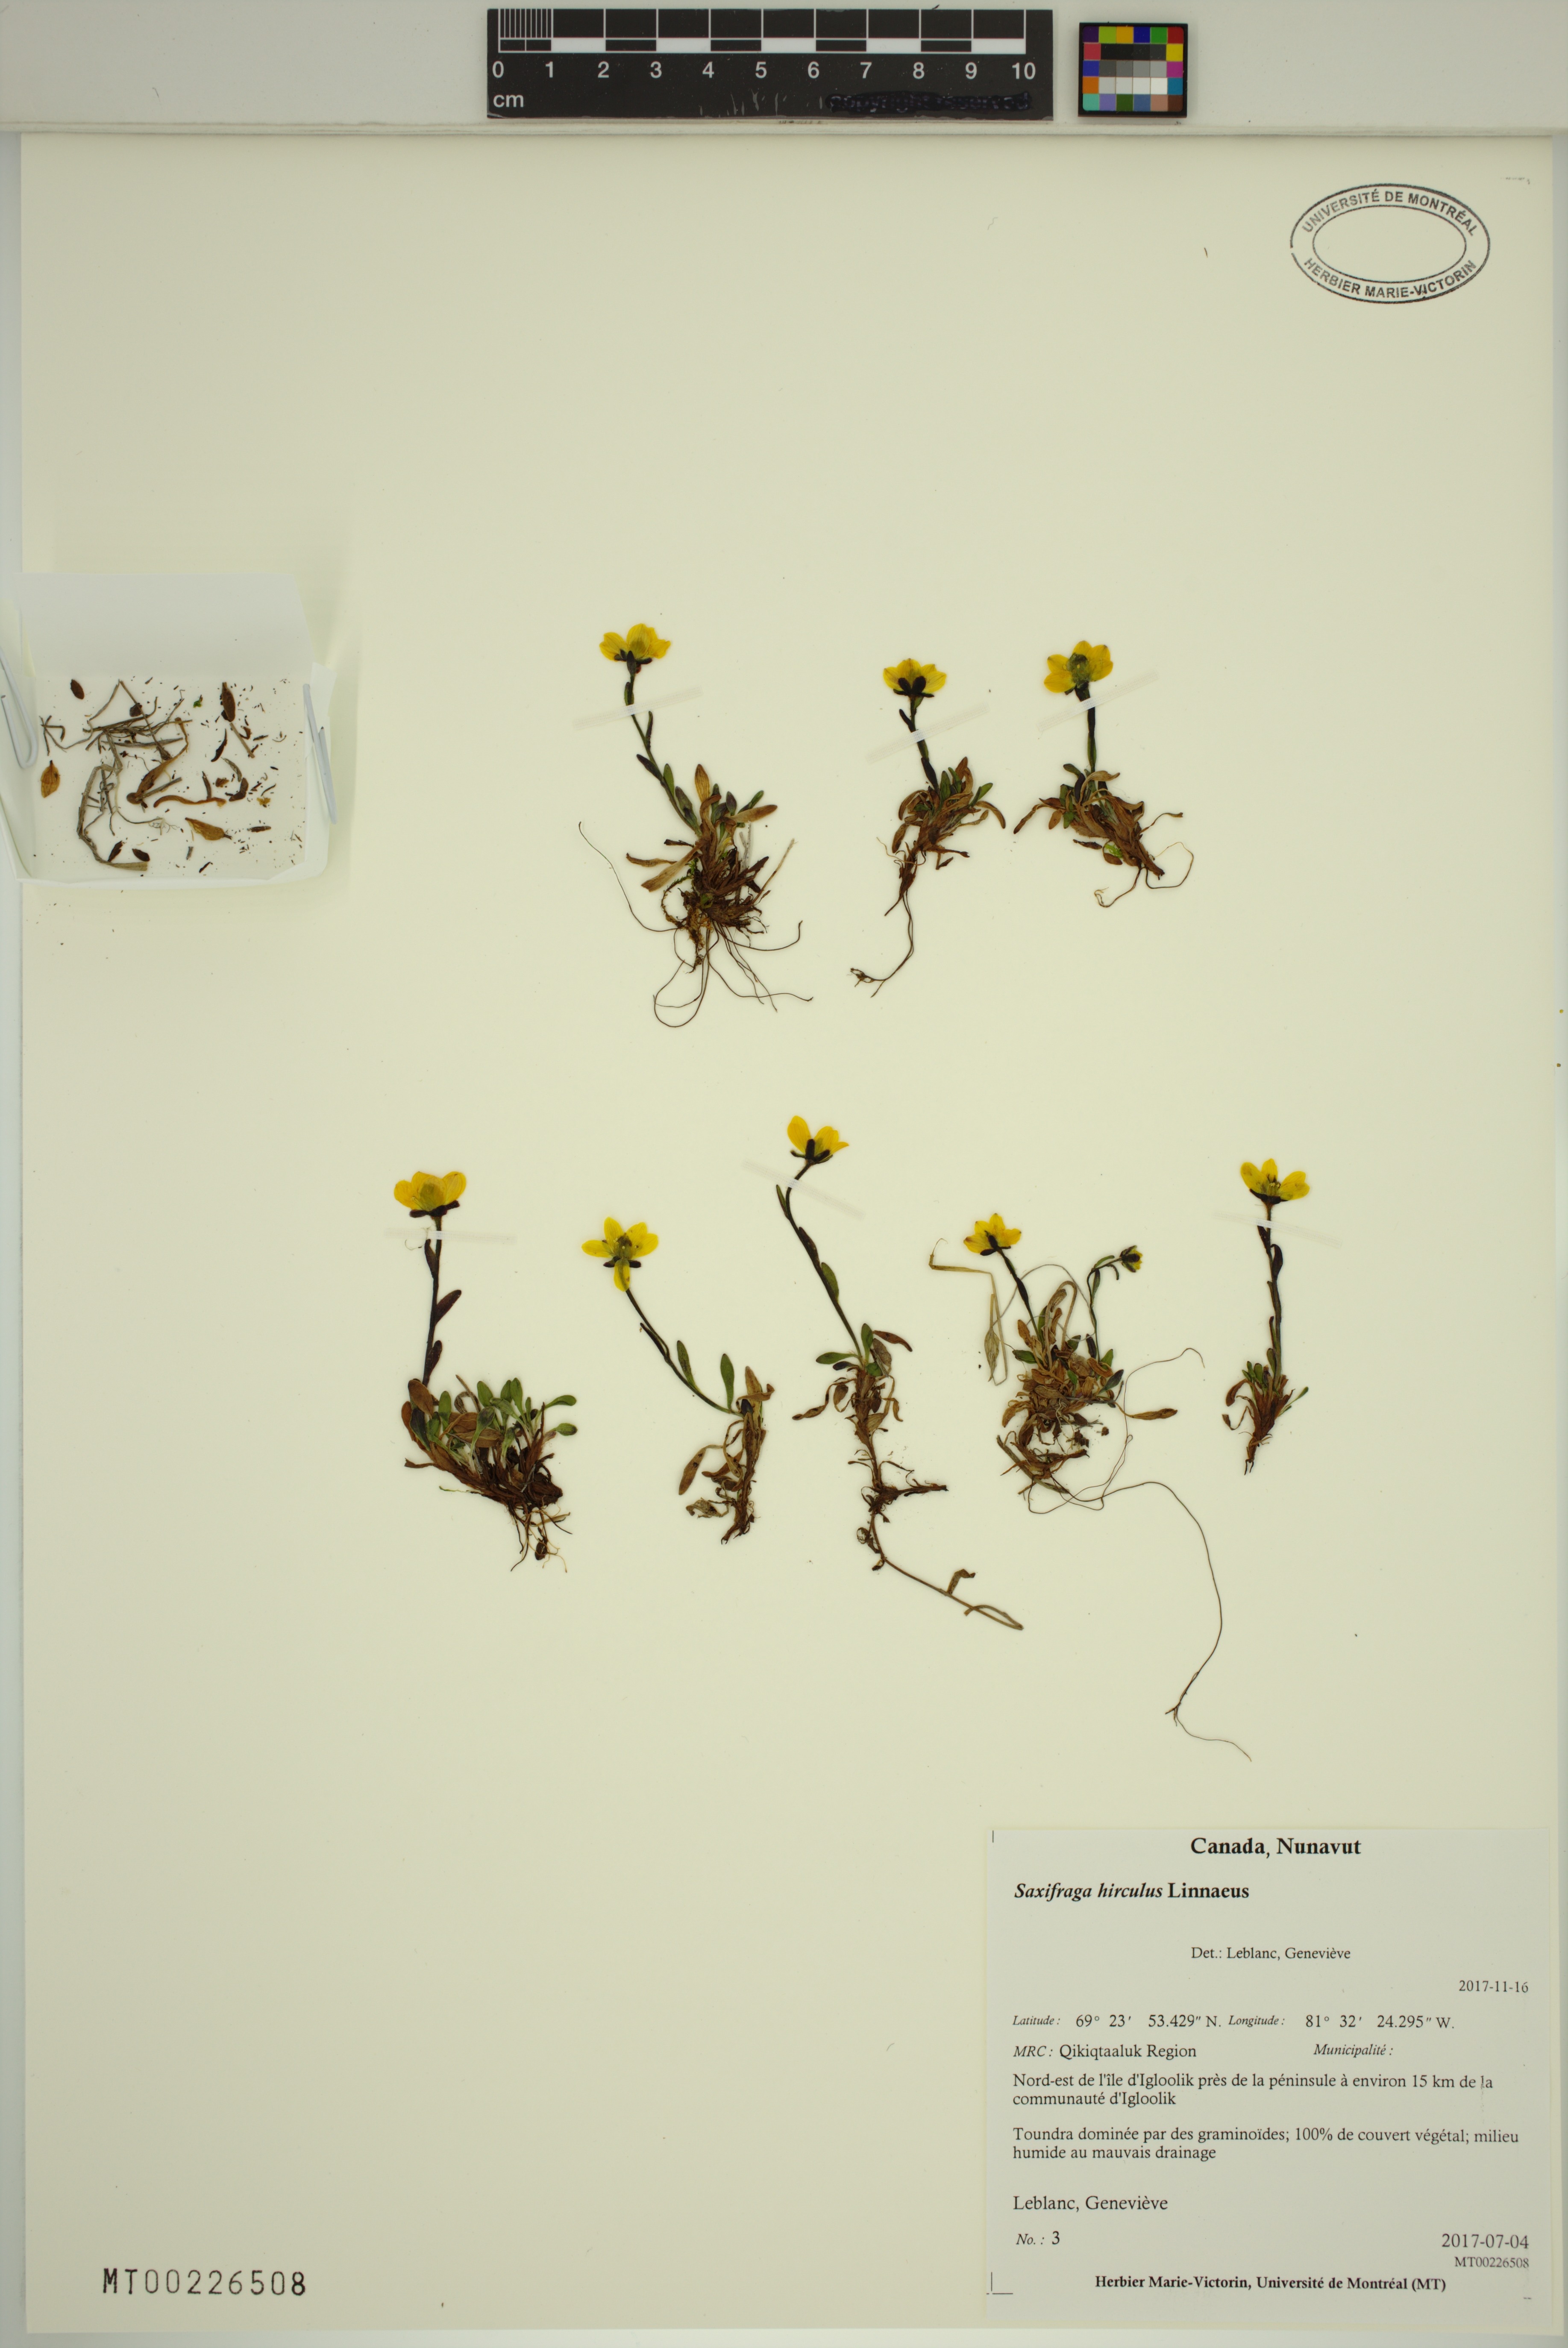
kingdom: Plantae
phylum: Tracheophyta
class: Magnoliopsida
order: Saxifragales
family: Saxifragaceae
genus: Saxifraga
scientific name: Saxifraga hirculus
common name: Yellow marsh saxifrage
